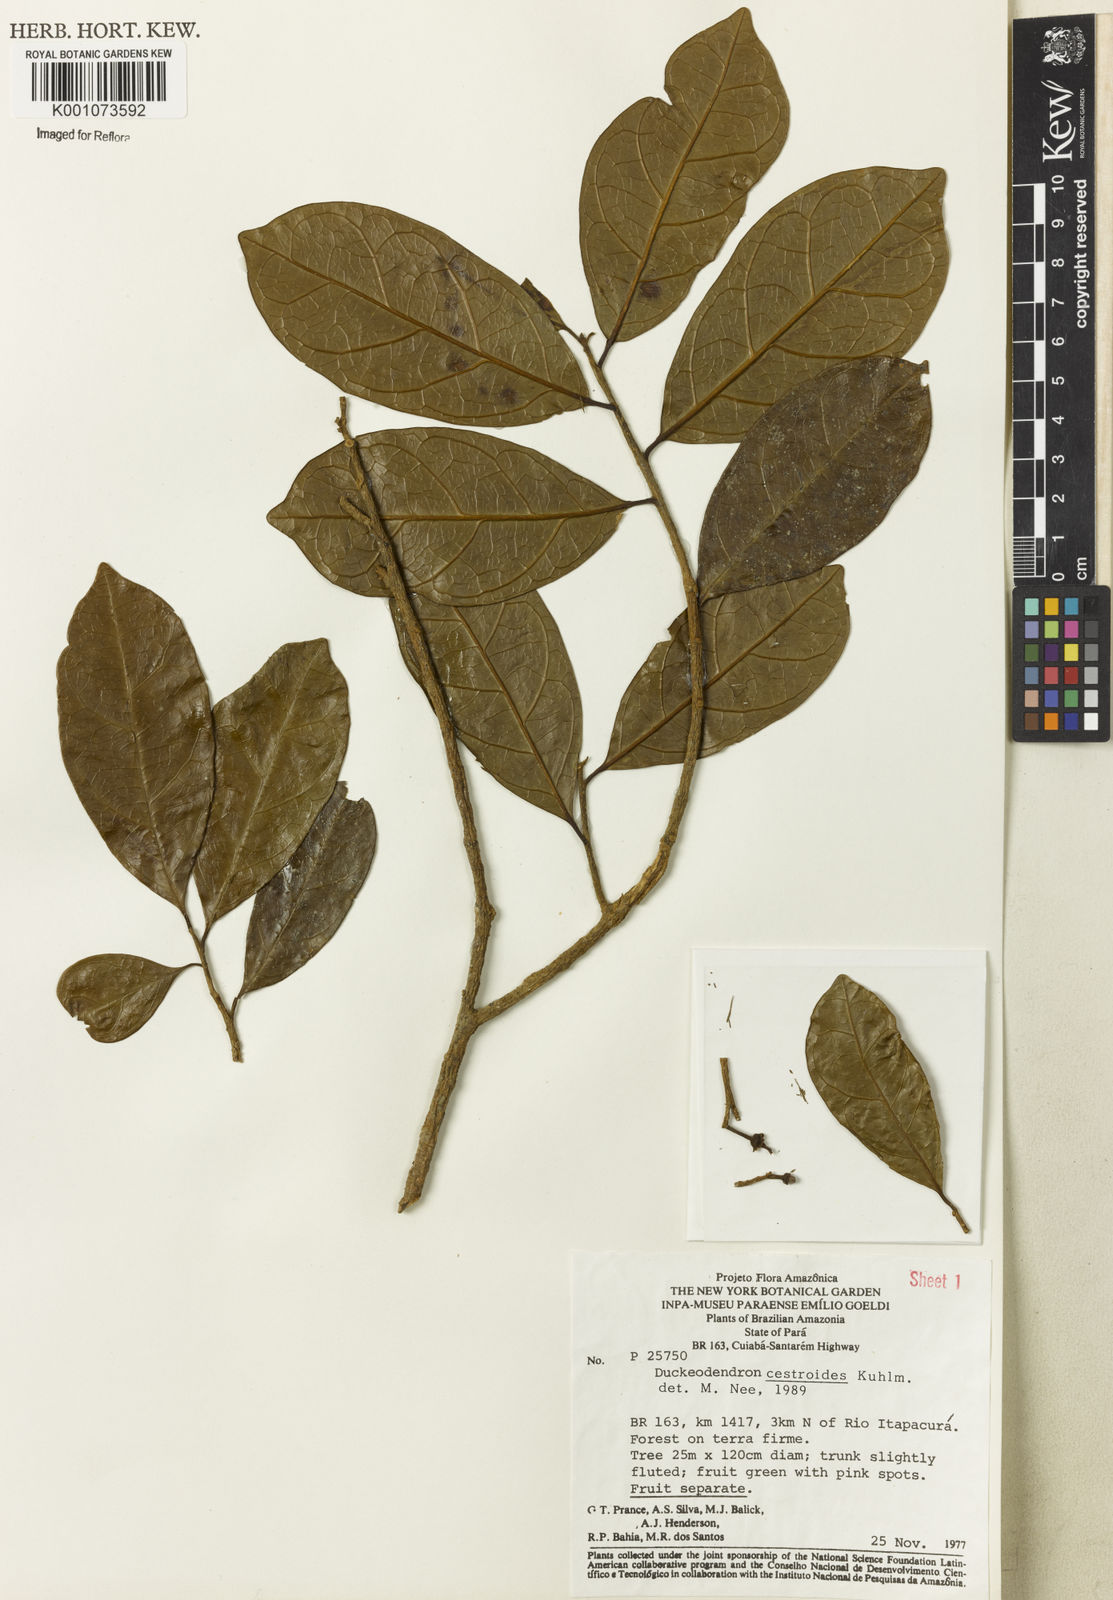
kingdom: Plantae
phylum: Tracheophyta
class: Magnoliopsida
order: Solanales
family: Solanaceae
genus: Duckeodendron
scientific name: Duckeodendron cestroides
